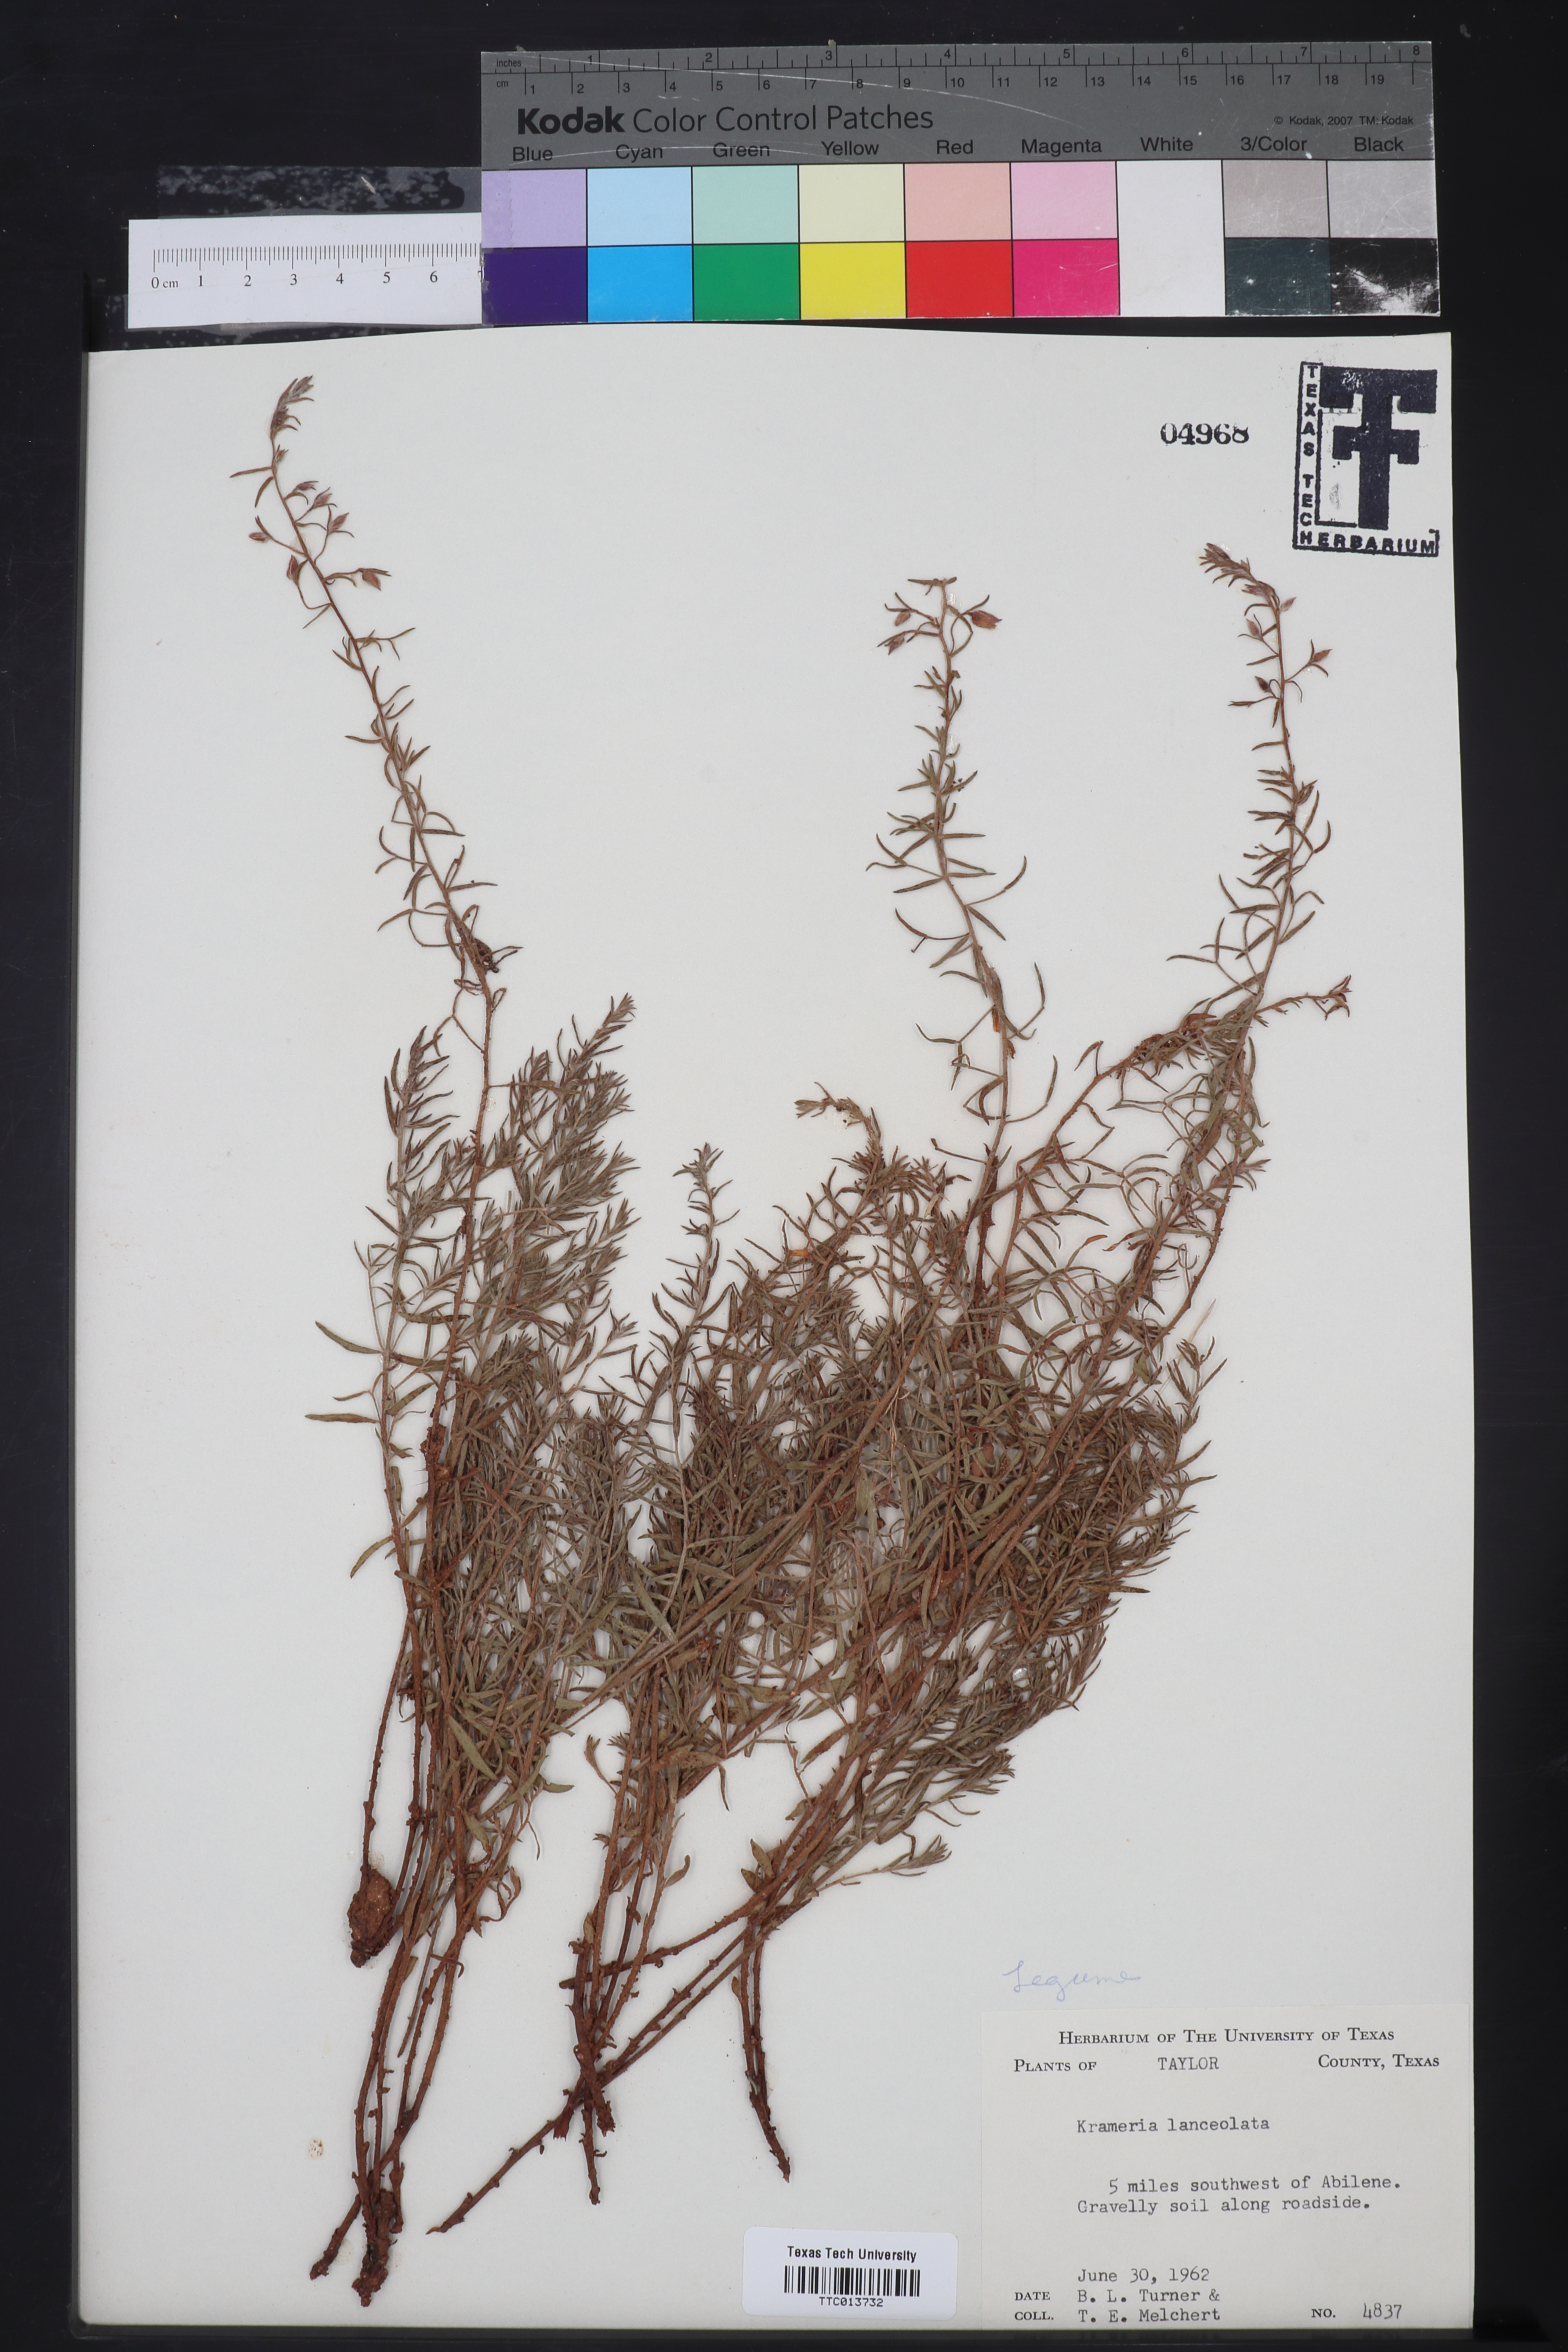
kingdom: Plantae
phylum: Tracheophyta
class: Magnoliopsida
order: Zygophyllales
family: Krameriaceae
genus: Krameria
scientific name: Krameria lanceolata
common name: Ratany
